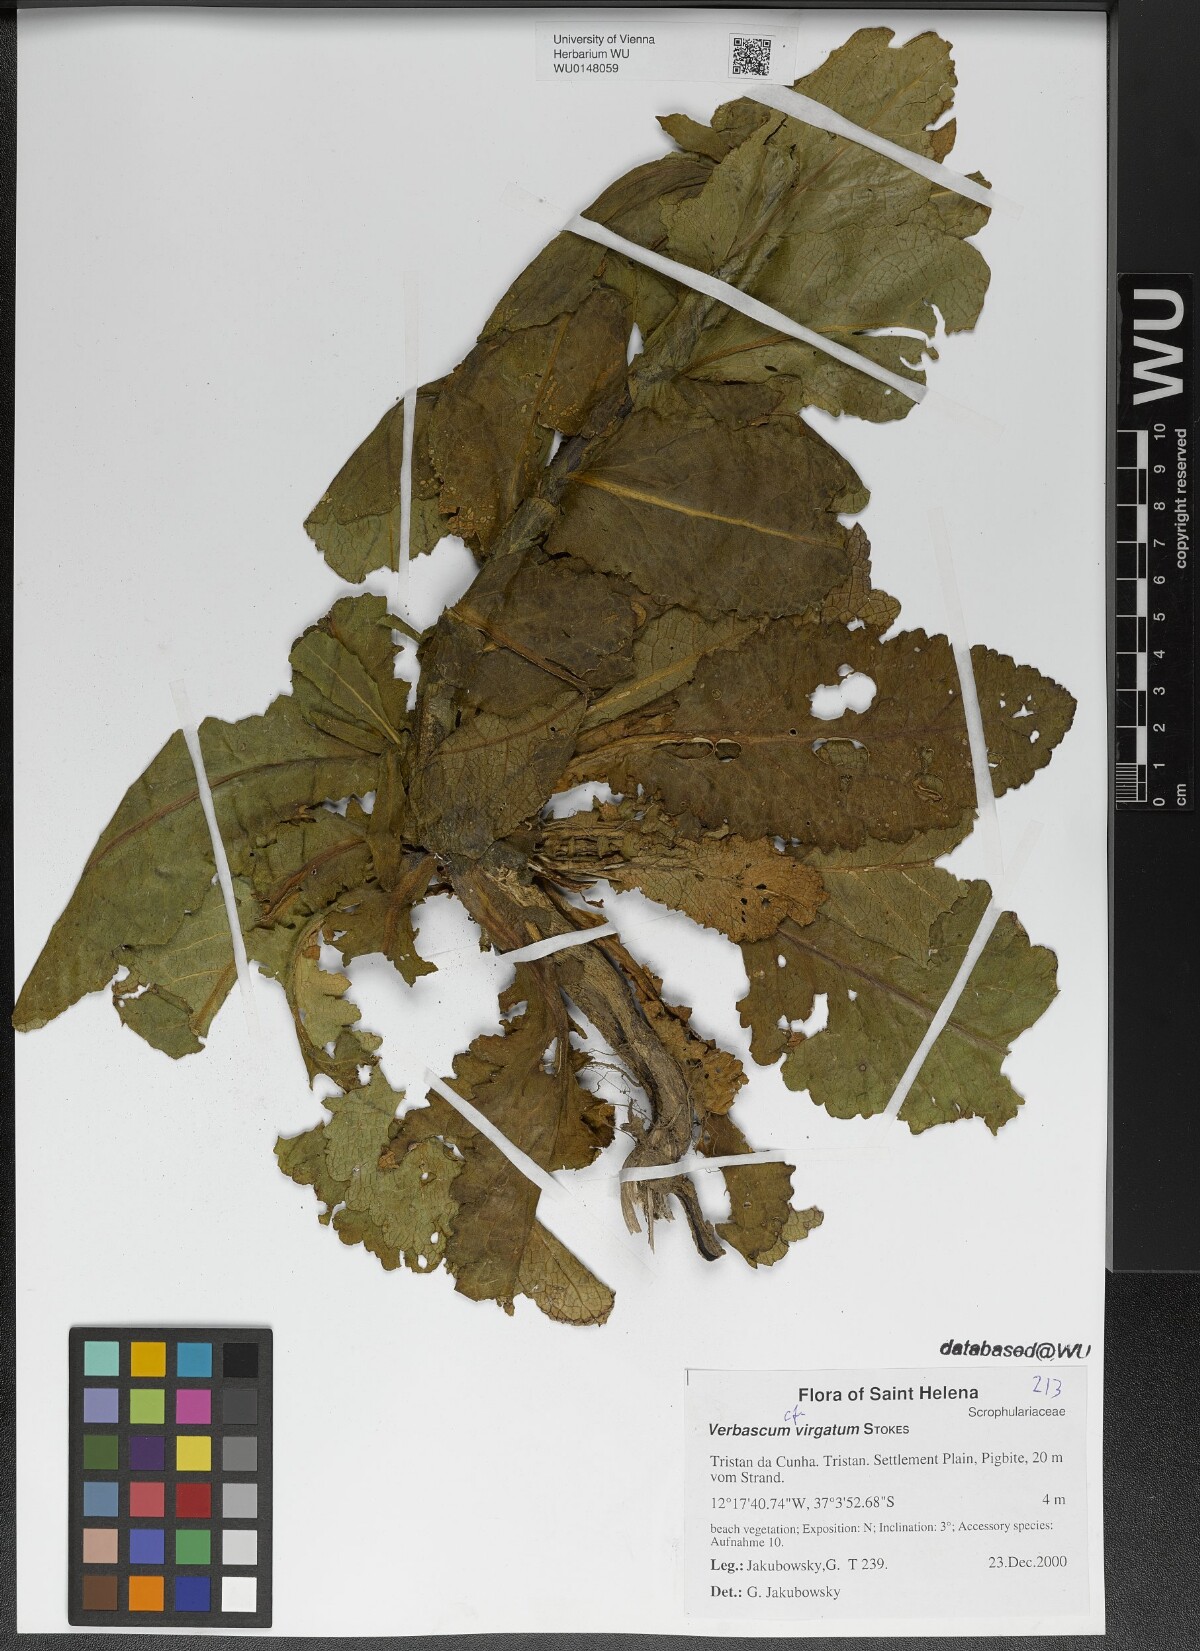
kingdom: Plantae
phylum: Tracheophyta
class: Magnoliopsida
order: Lamiales
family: Scrophulariaceae
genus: Verbascum
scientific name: Verbascum virgatum
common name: Twiggy mullein
